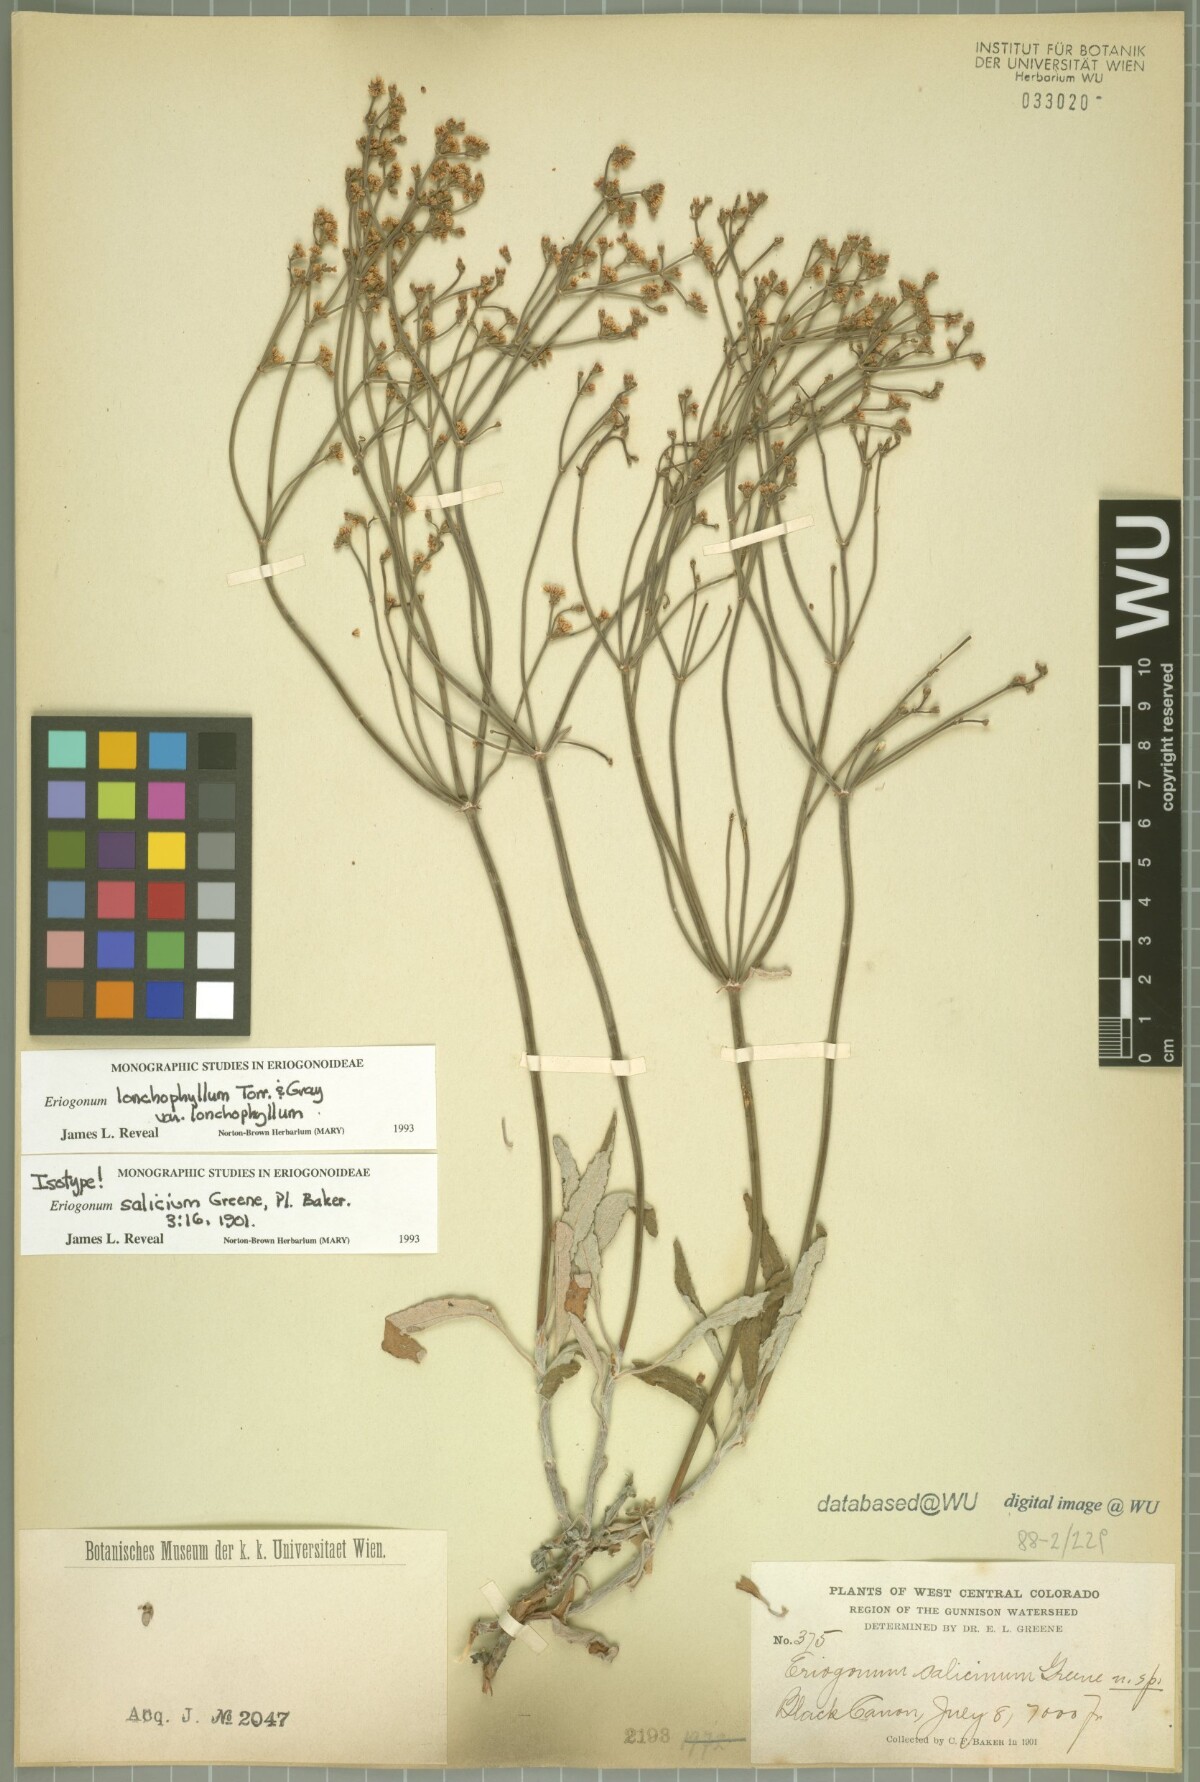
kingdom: Plantae
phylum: Tracheophyta
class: Magnoliopsida
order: Caryophyllales
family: Polygonaceae
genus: Eriogonum
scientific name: Eriogonum lonchophyllum
